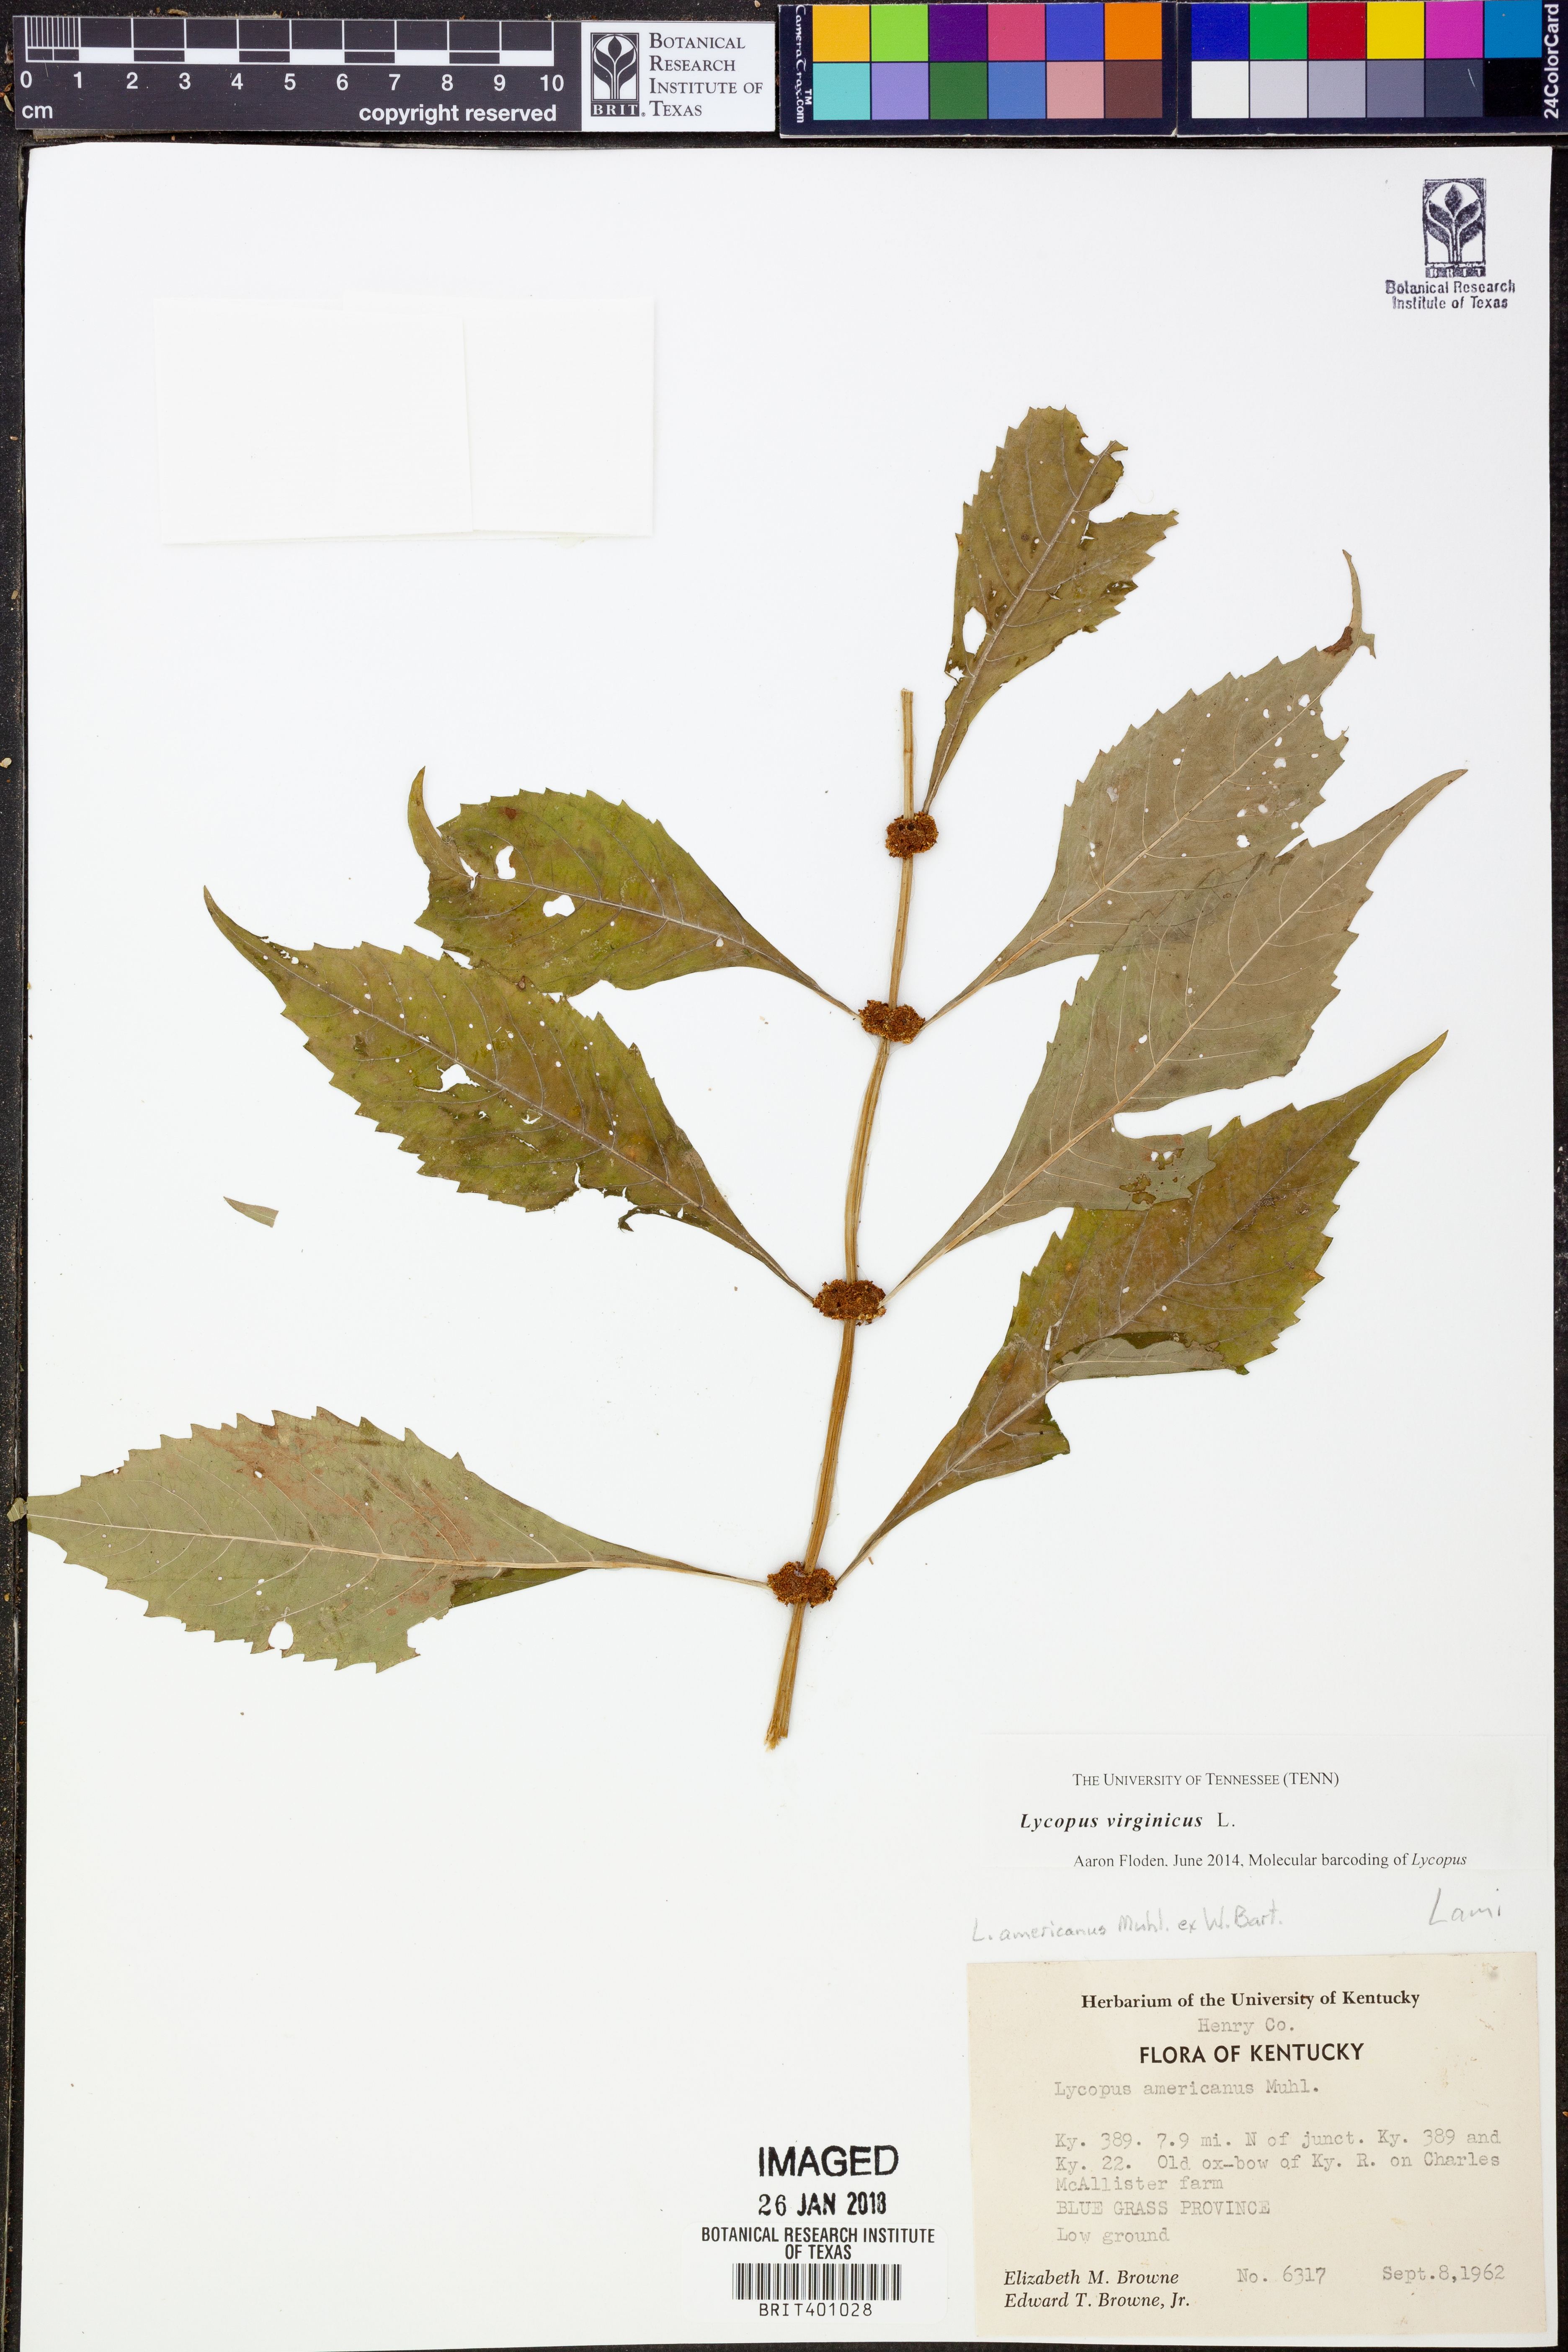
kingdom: Plantae
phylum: Tracheophyta
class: Magnoliopsida
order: Lamiales
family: Lamiaceae
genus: Lycopus
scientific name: Lycopus virginicus
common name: Bugleweed
